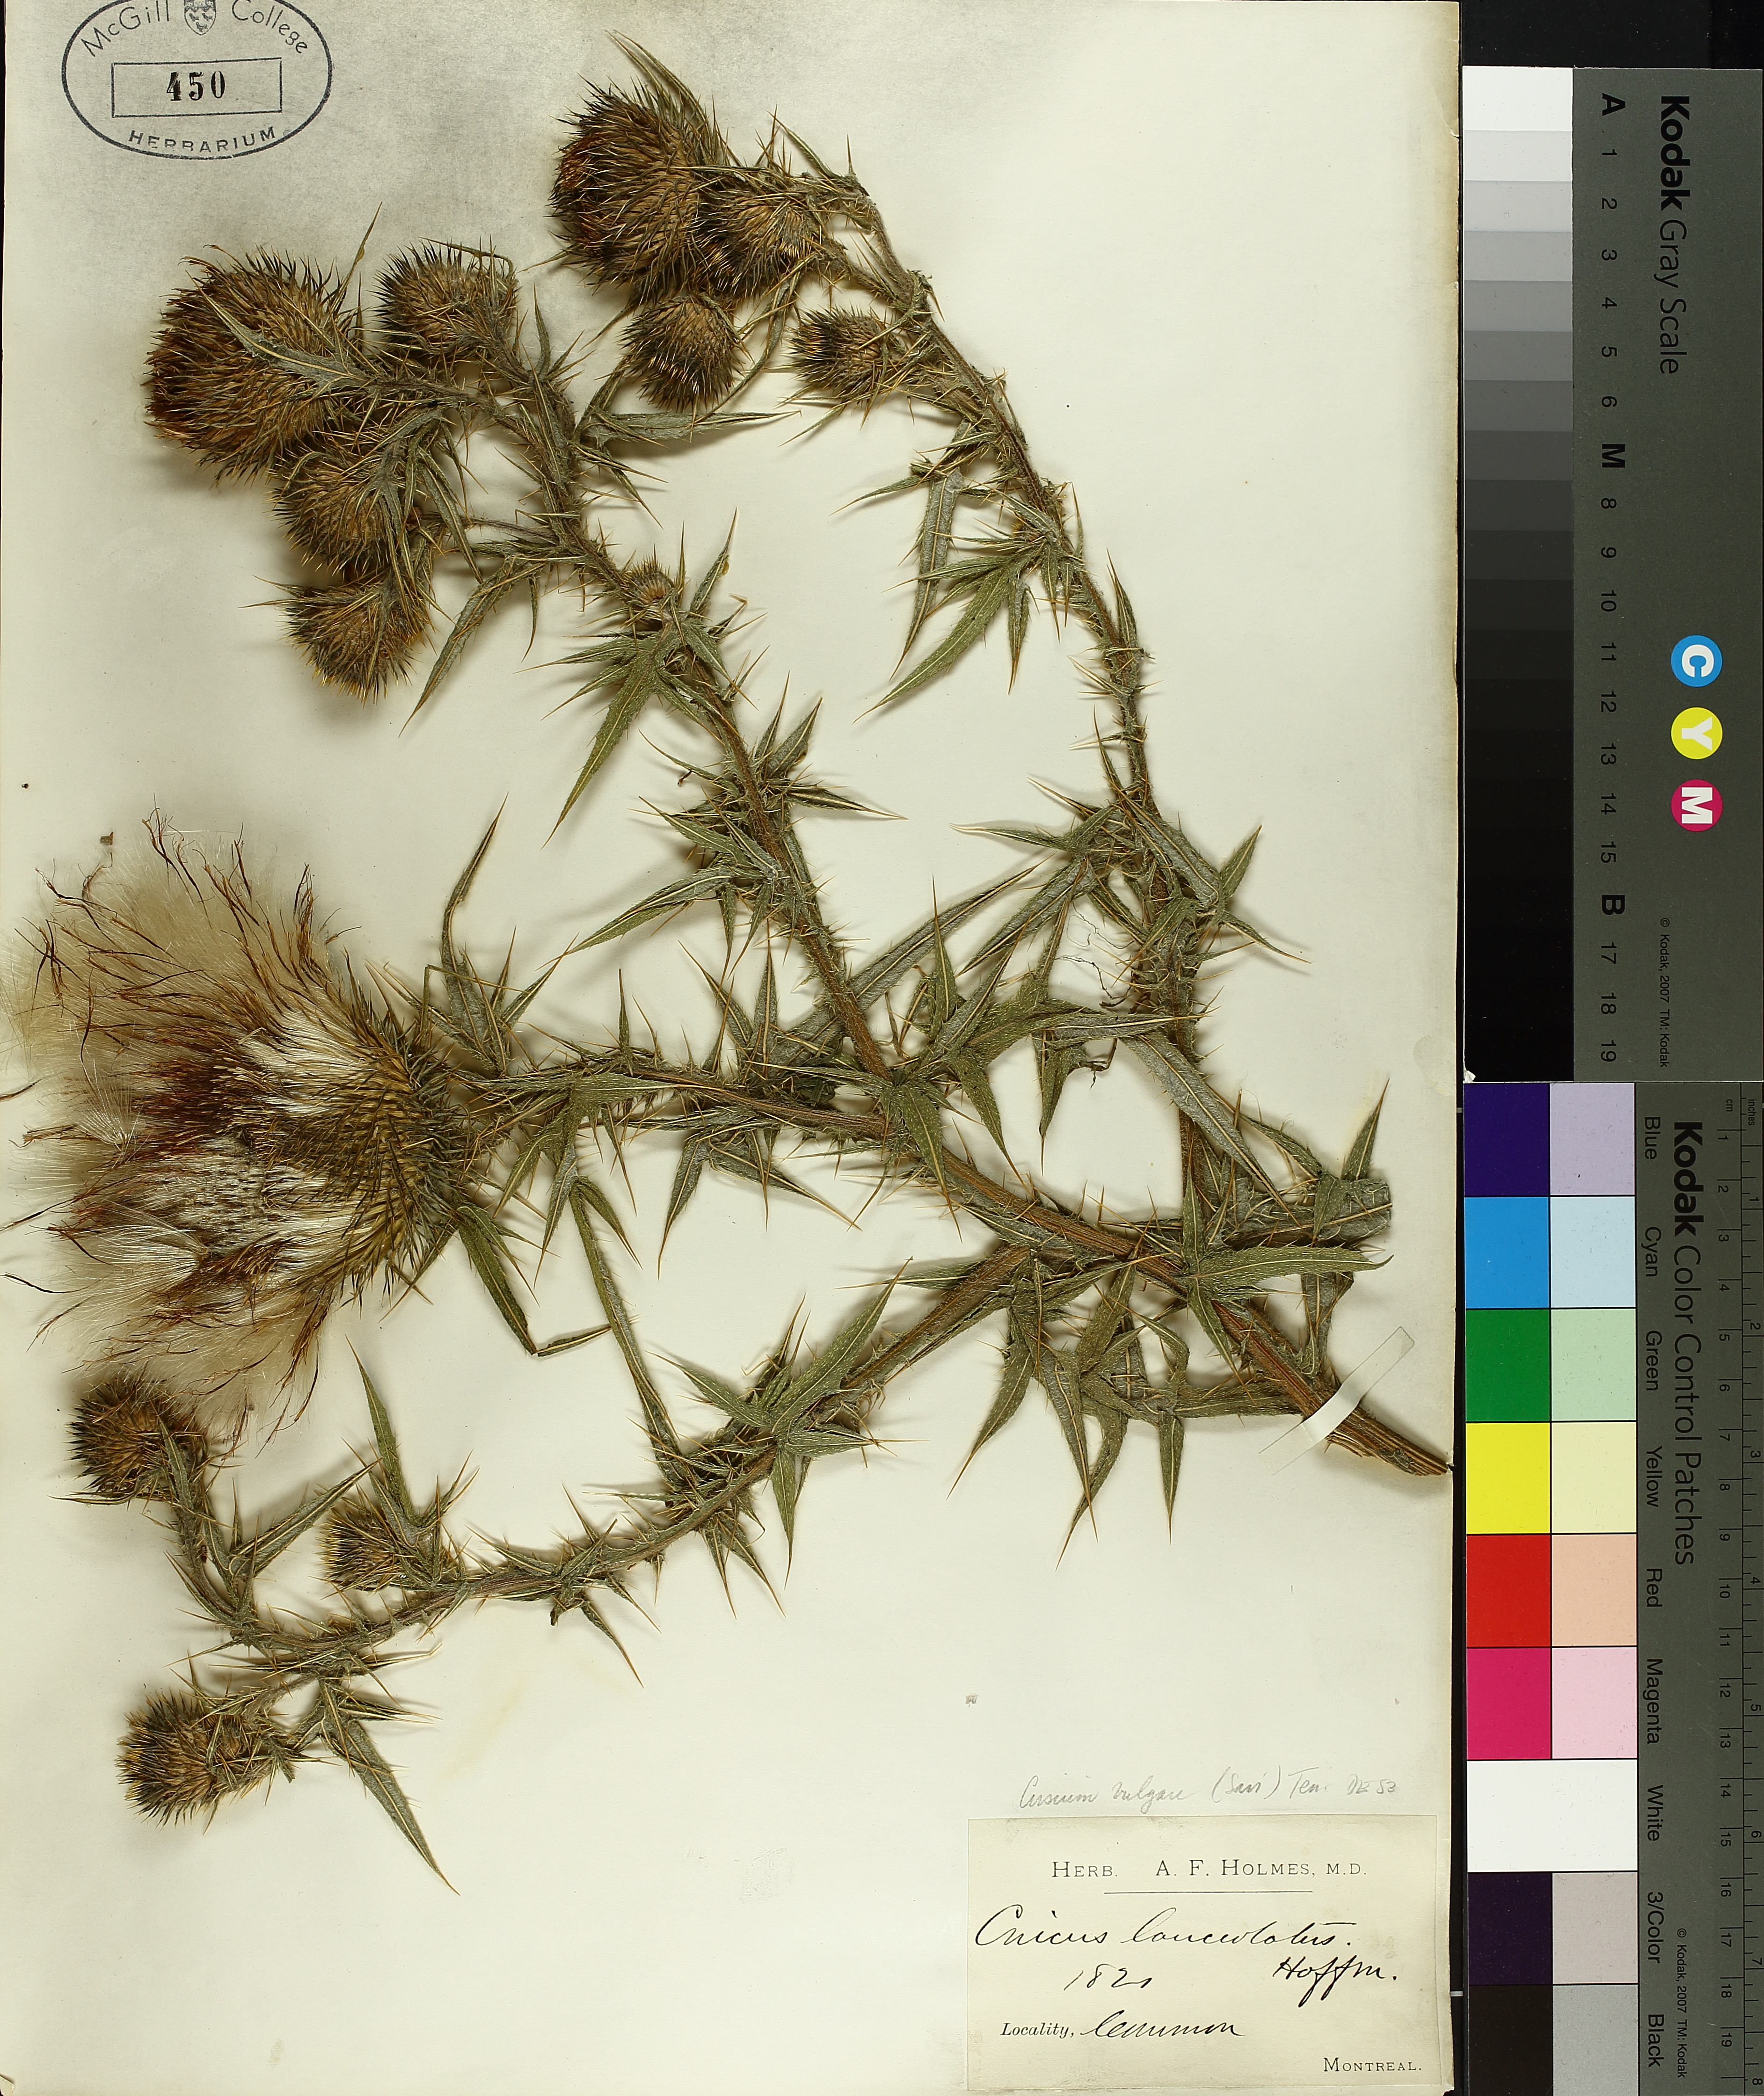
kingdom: Plantae
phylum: Tracheophyta
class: Magnoliopsida
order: Asterales
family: Asteraceae
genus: Cirsium
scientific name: Cirsium vulgare
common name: Bull thistle
